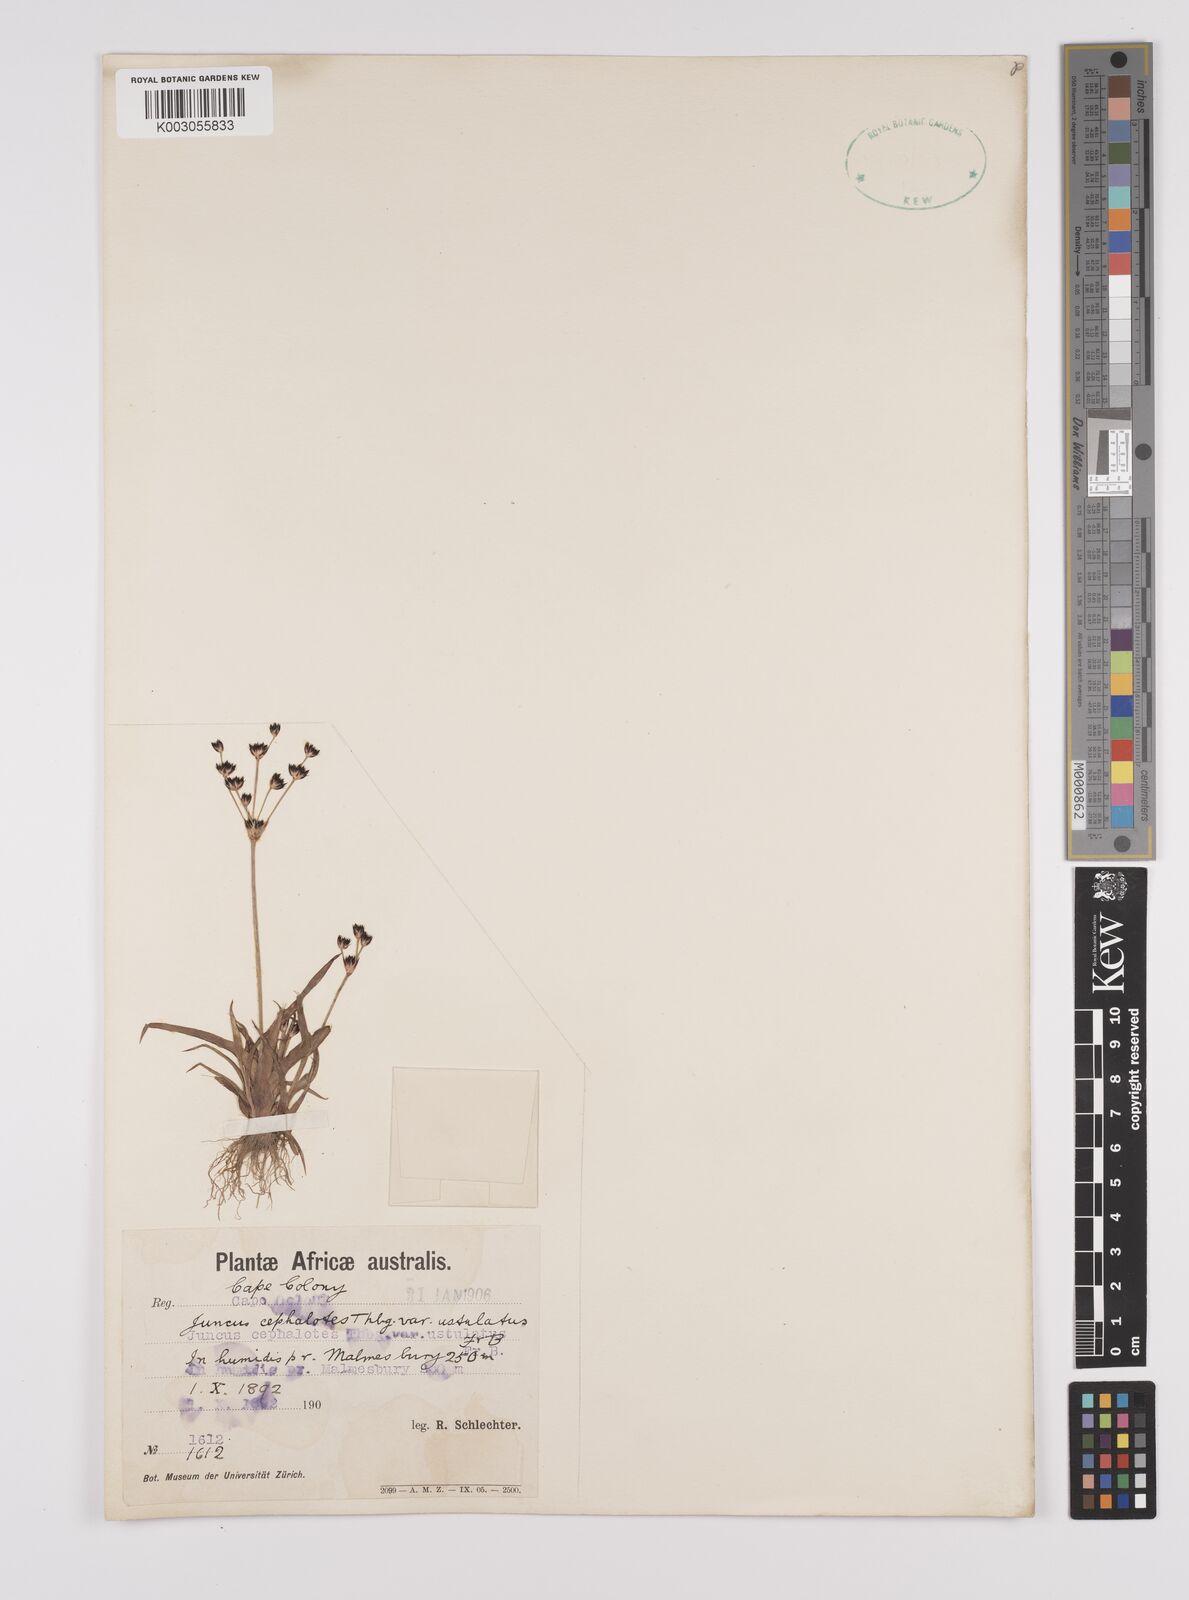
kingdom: Plantae
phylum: Tracheophyta
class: Liliopsida
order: Poales
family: Juncaceae
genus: Juncus
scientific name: Juncus cephalotes
